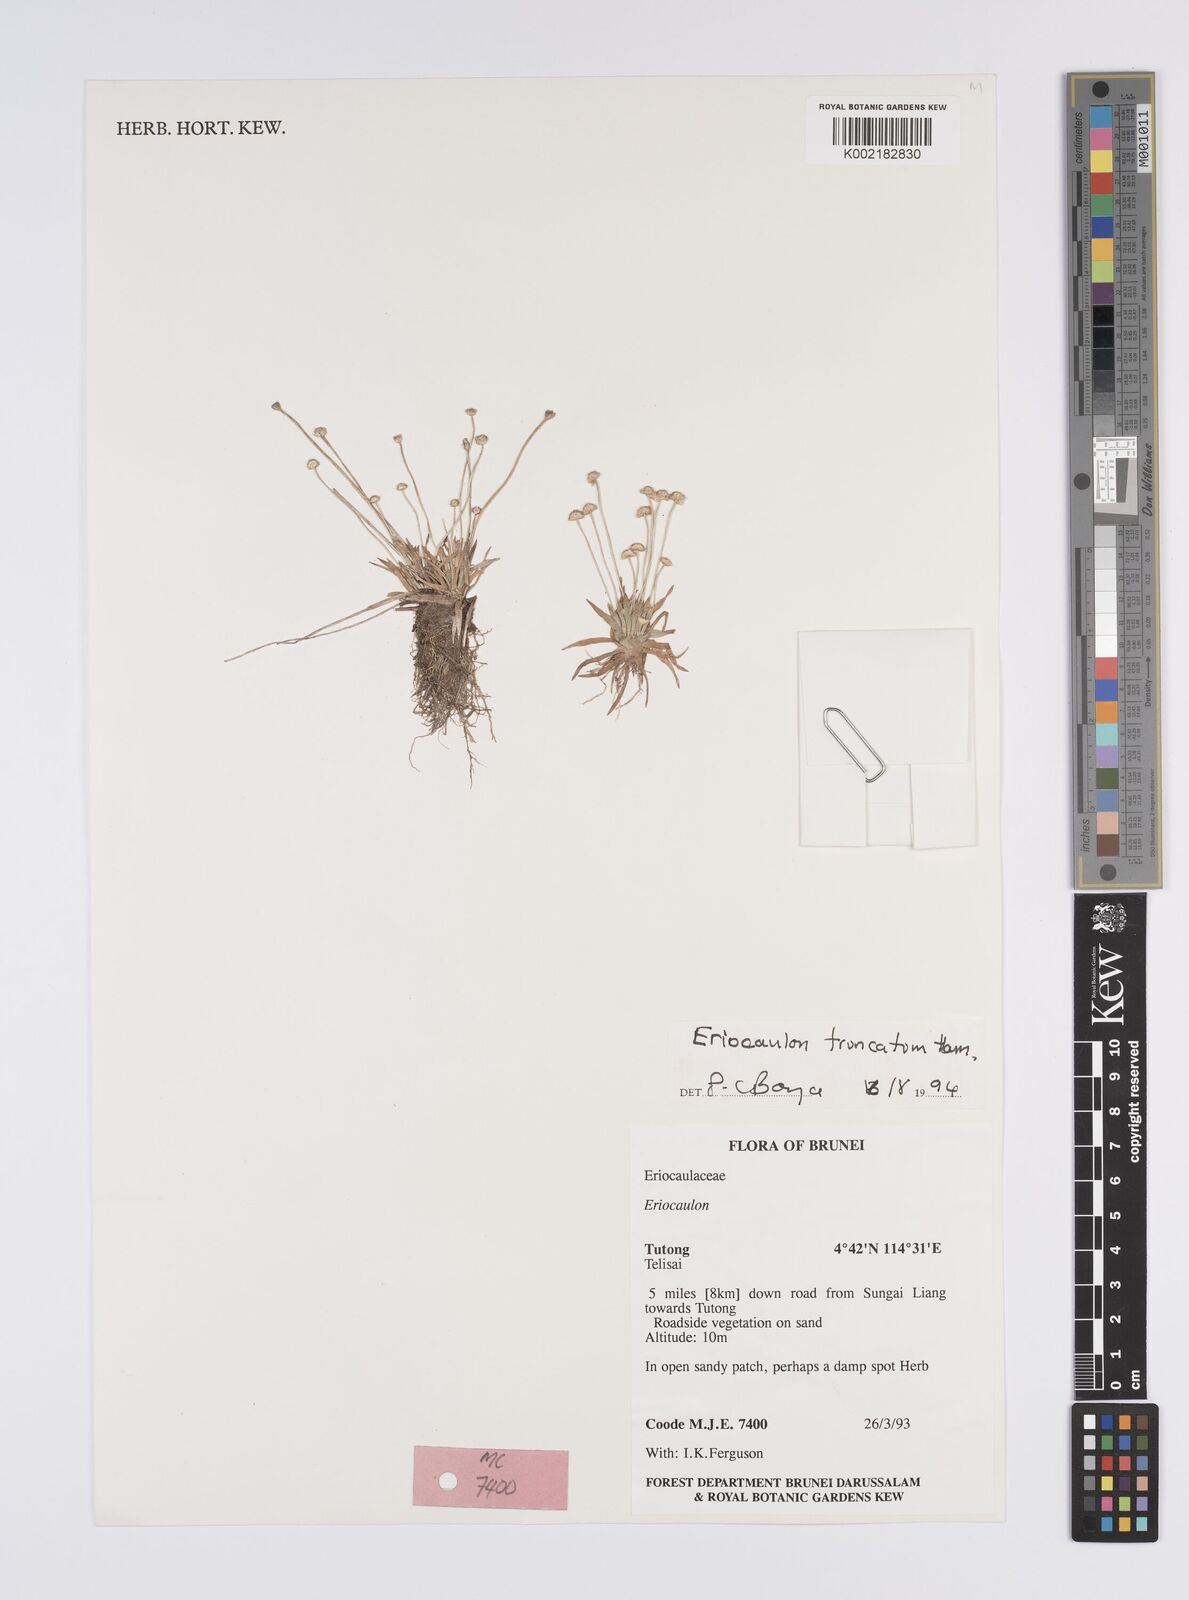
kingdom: Plantae
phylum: Tracheophyta
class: Liliopsida
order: Poales
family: Eriocaulaceae
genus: Eriocaulon
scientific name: Eriocaulon truncatum
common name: Short pipe-wort
